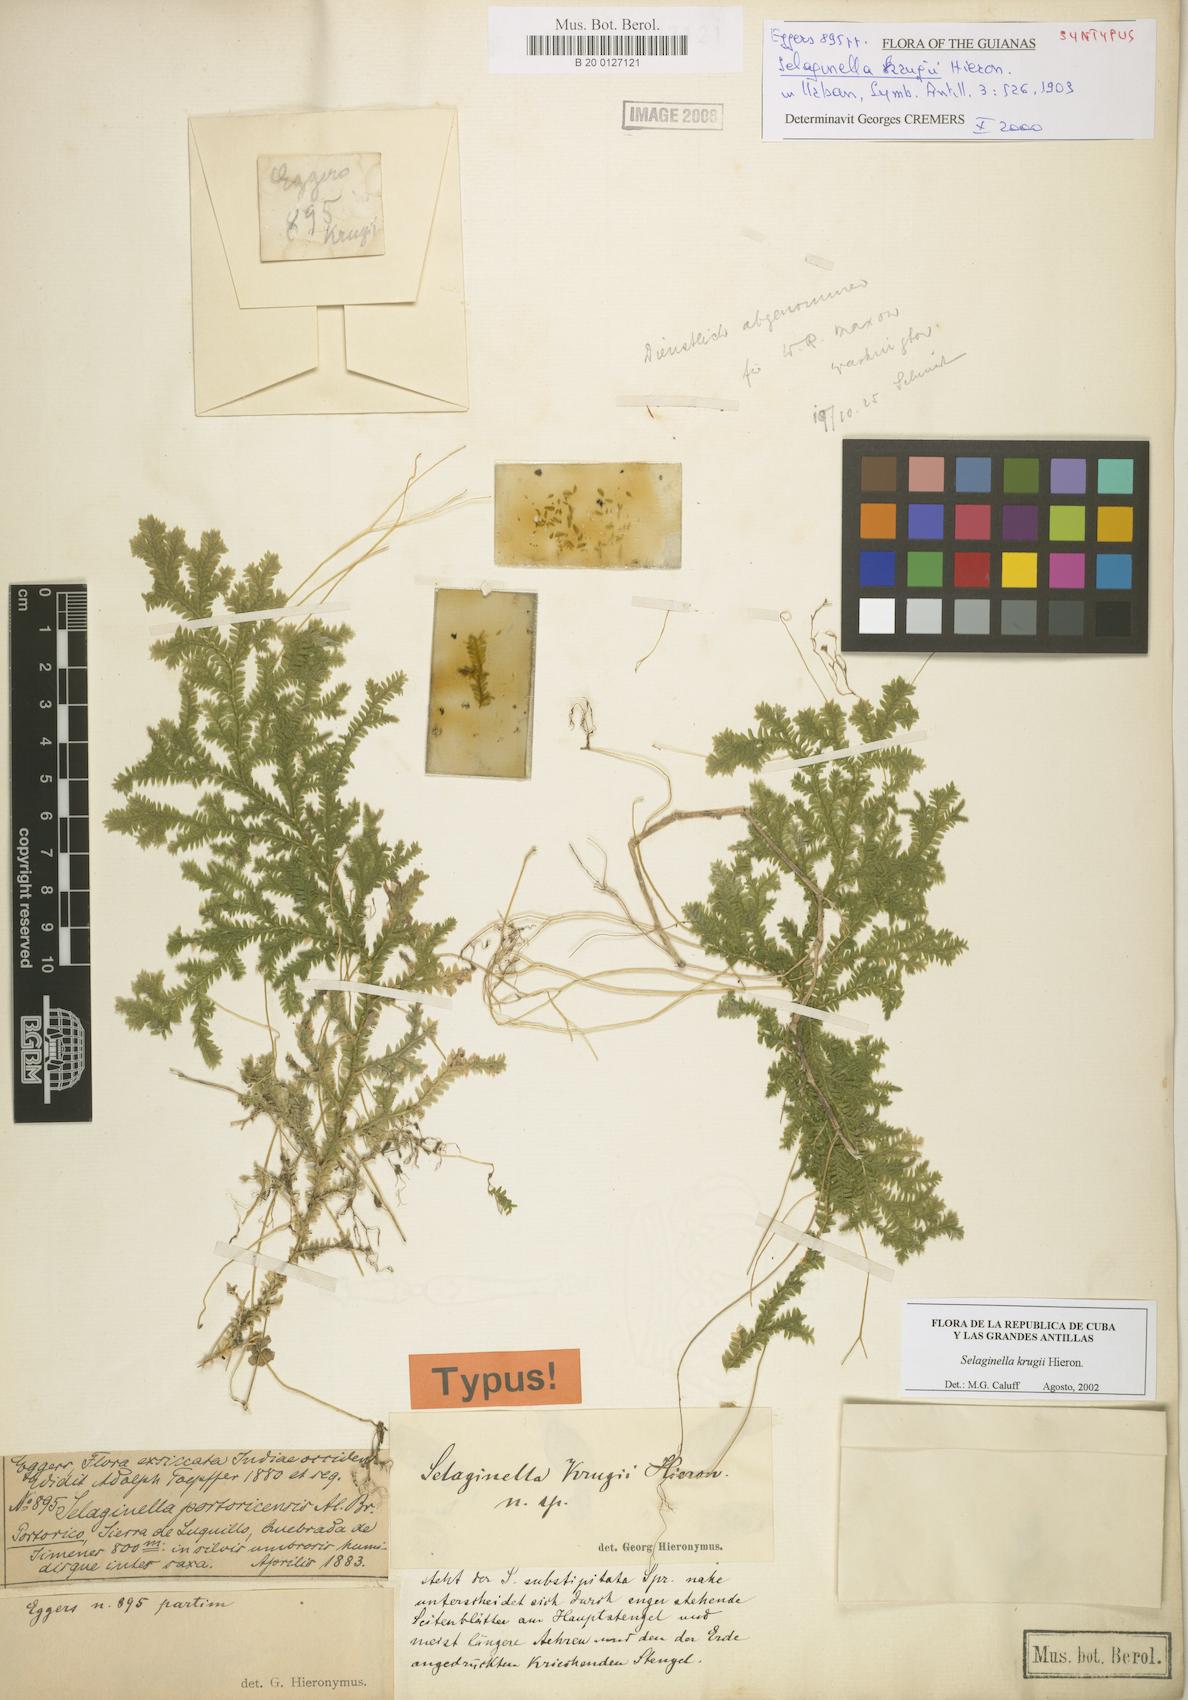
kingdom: Plantae
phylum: Tracheophyta
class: Lycopodiopsida
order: Selaginellales
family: Selaginellaceae
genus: Selaginella
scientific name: Selaginella krugii
